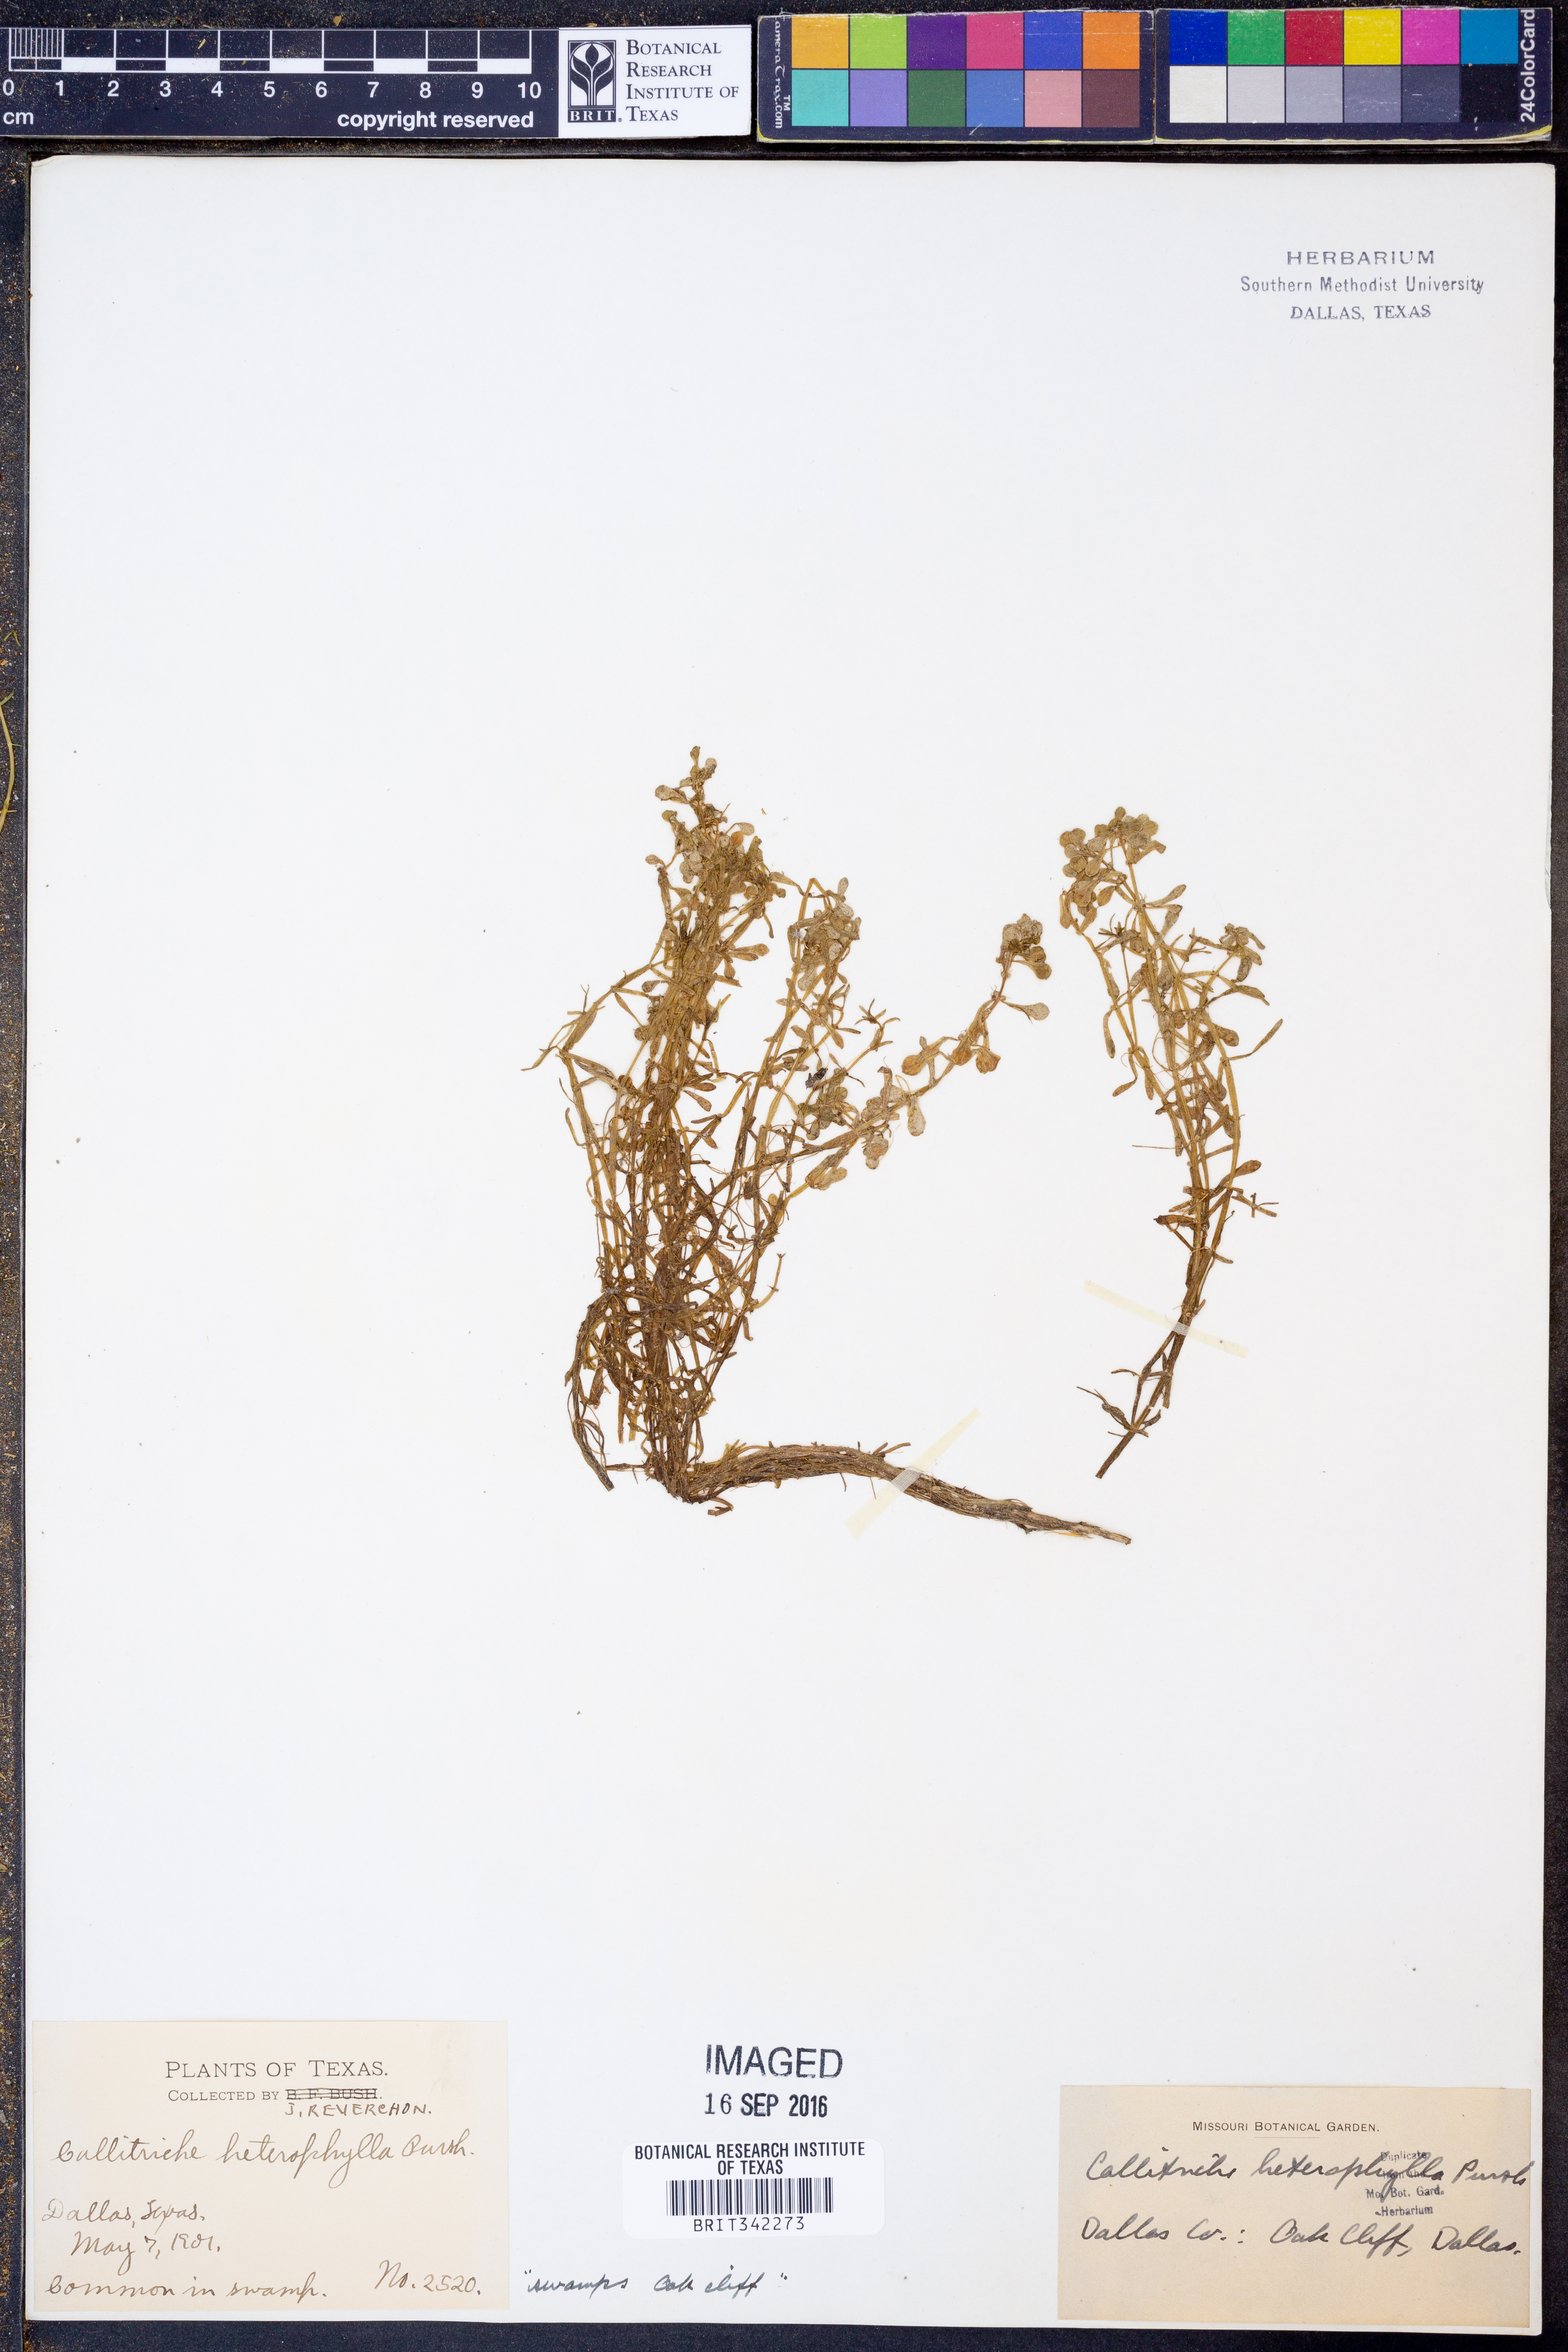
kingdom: Plantae
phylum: Tracheophyta
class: Magnoliopsida
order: Lamiales
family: Plantaginaceae
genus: Callitriche
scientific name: Callitriche heterophylla
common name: Two-headed water-starwort
